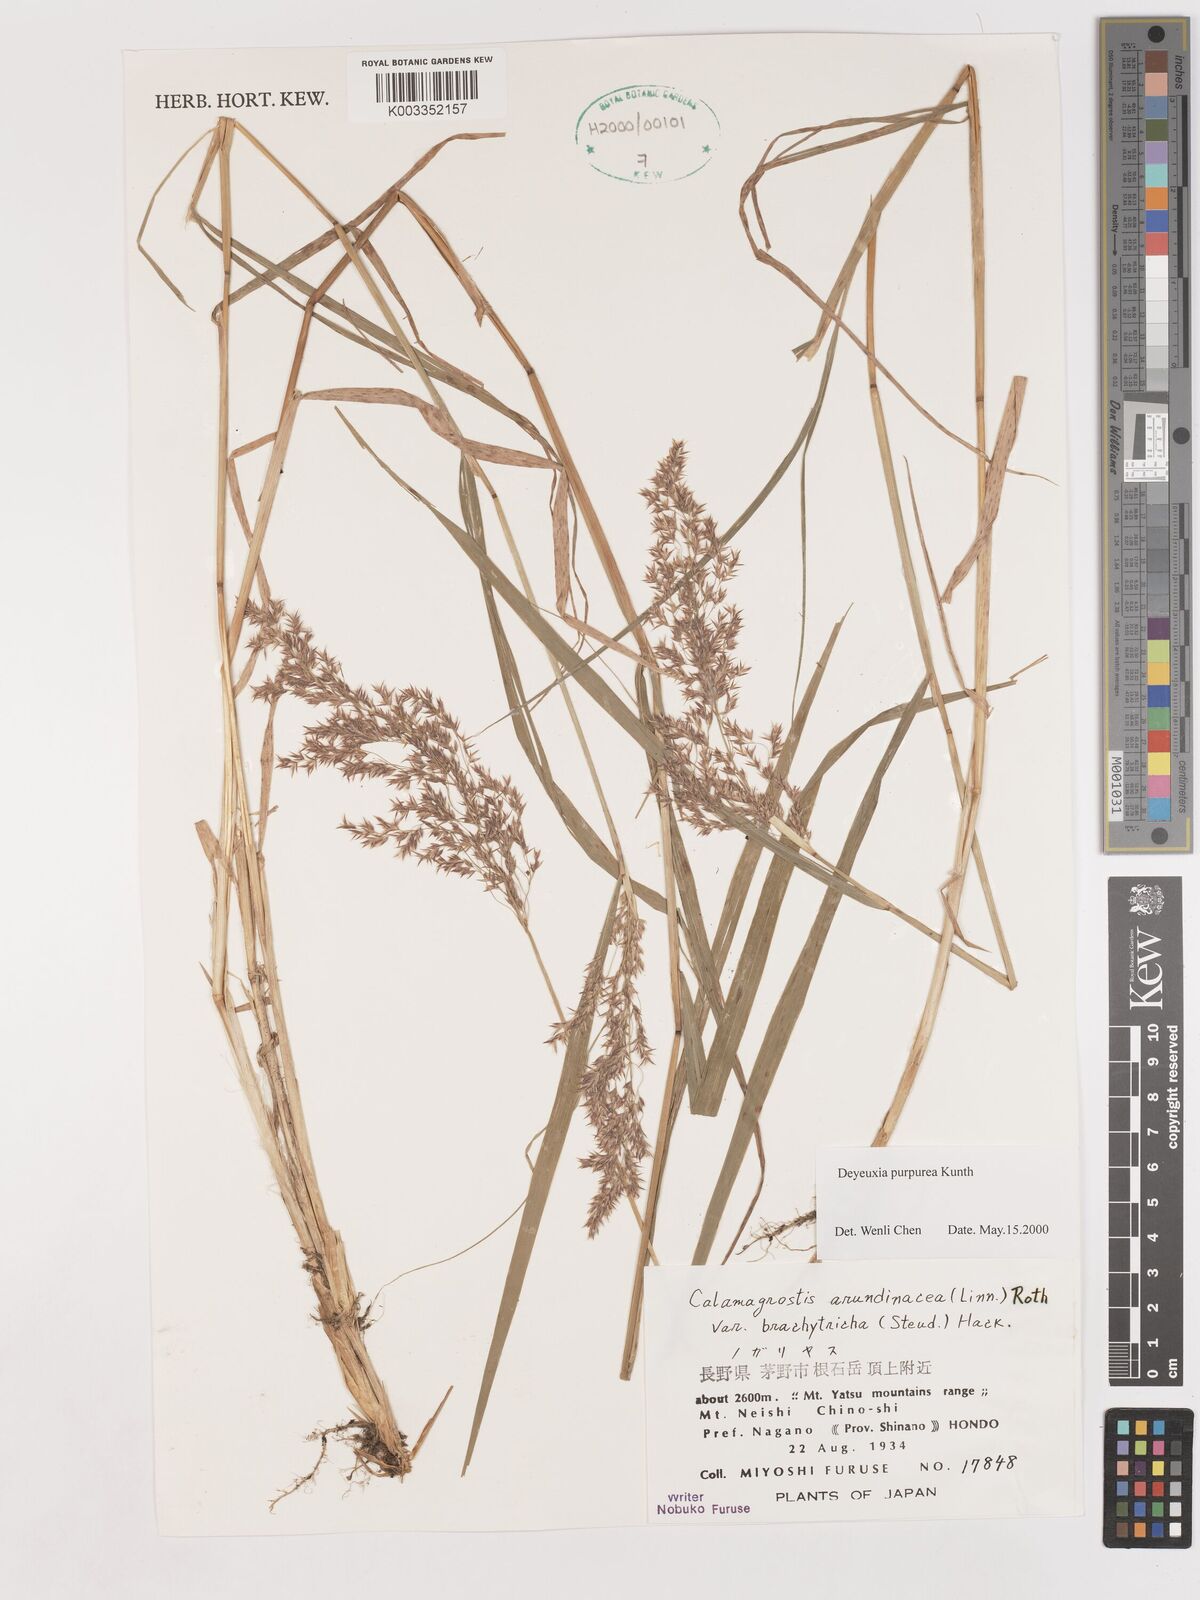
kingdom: Plantae
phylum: Tracheophyta
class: Liliopsida
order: Poales
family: Poaceae
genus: Calamagrostis
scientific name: Calamagrostis purpurea
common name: Scandinavian small-reed
